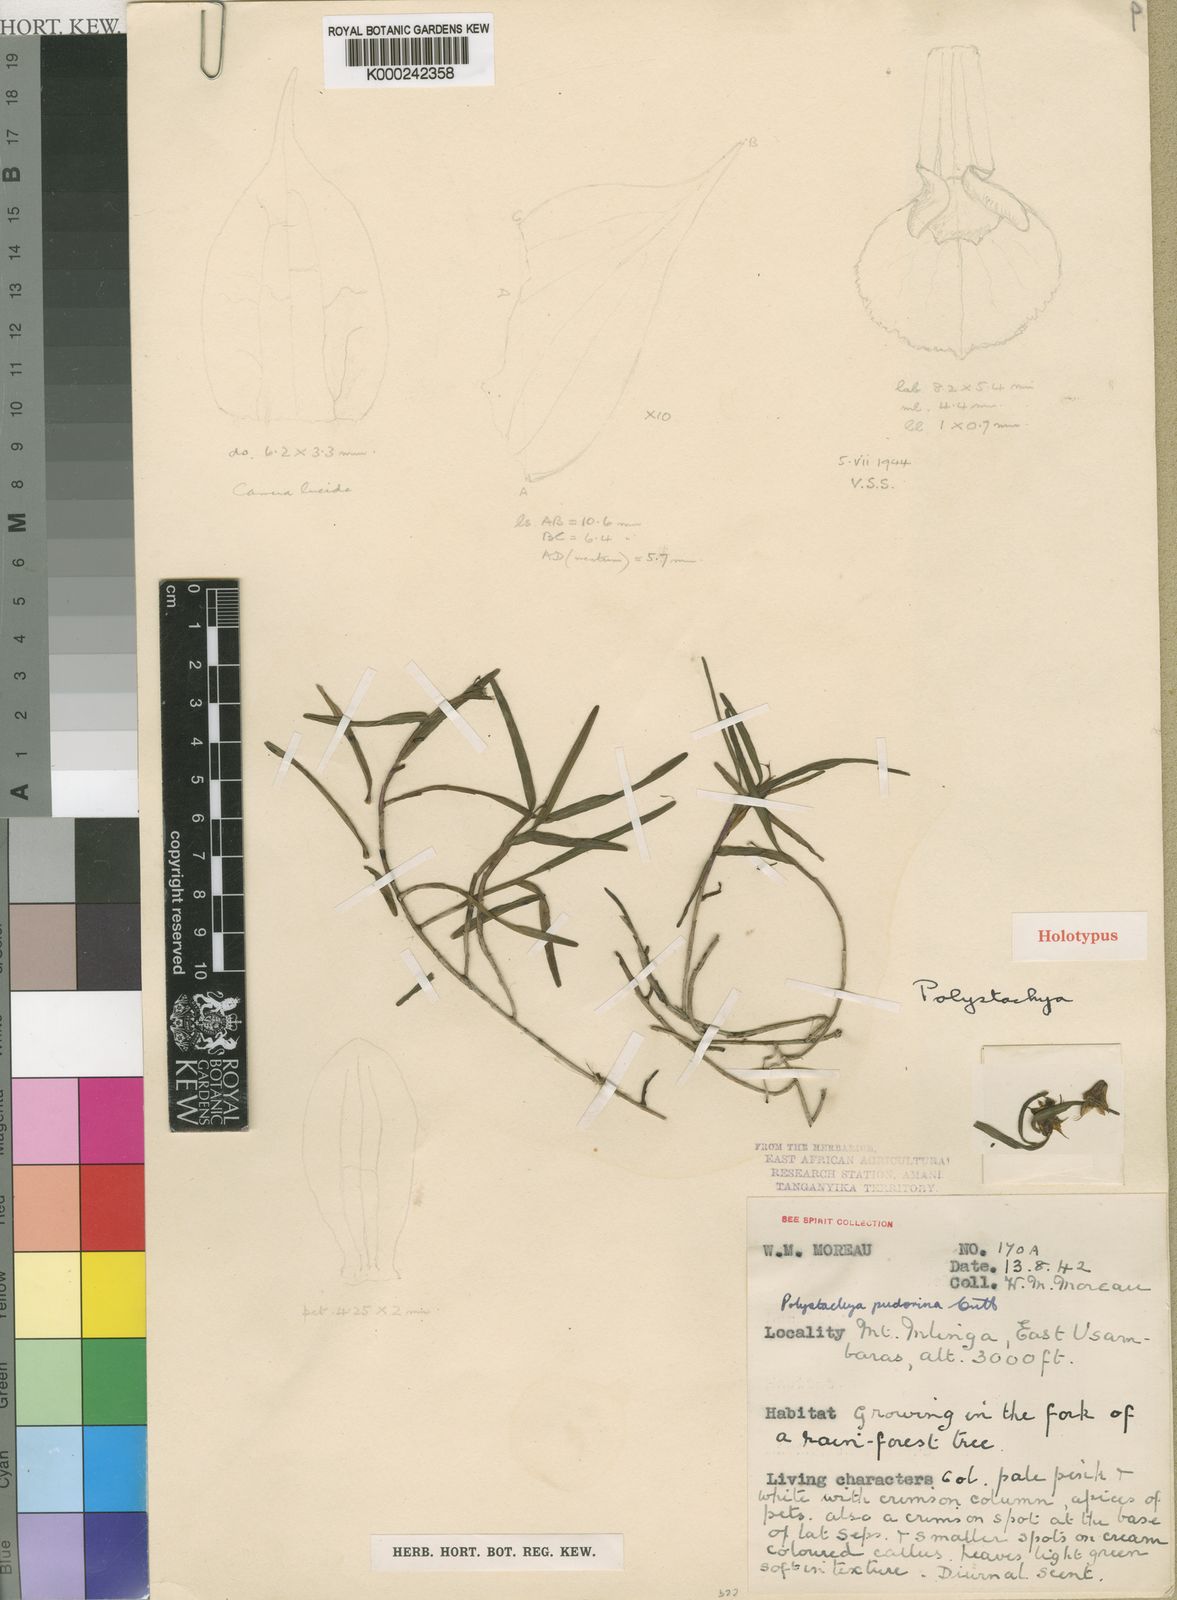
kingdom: Plantae
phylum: Tracheophyta
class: Liliopsida
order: Asparagales
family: Orchidaceae
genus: Polystachya
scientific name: Polystachya pudorina
